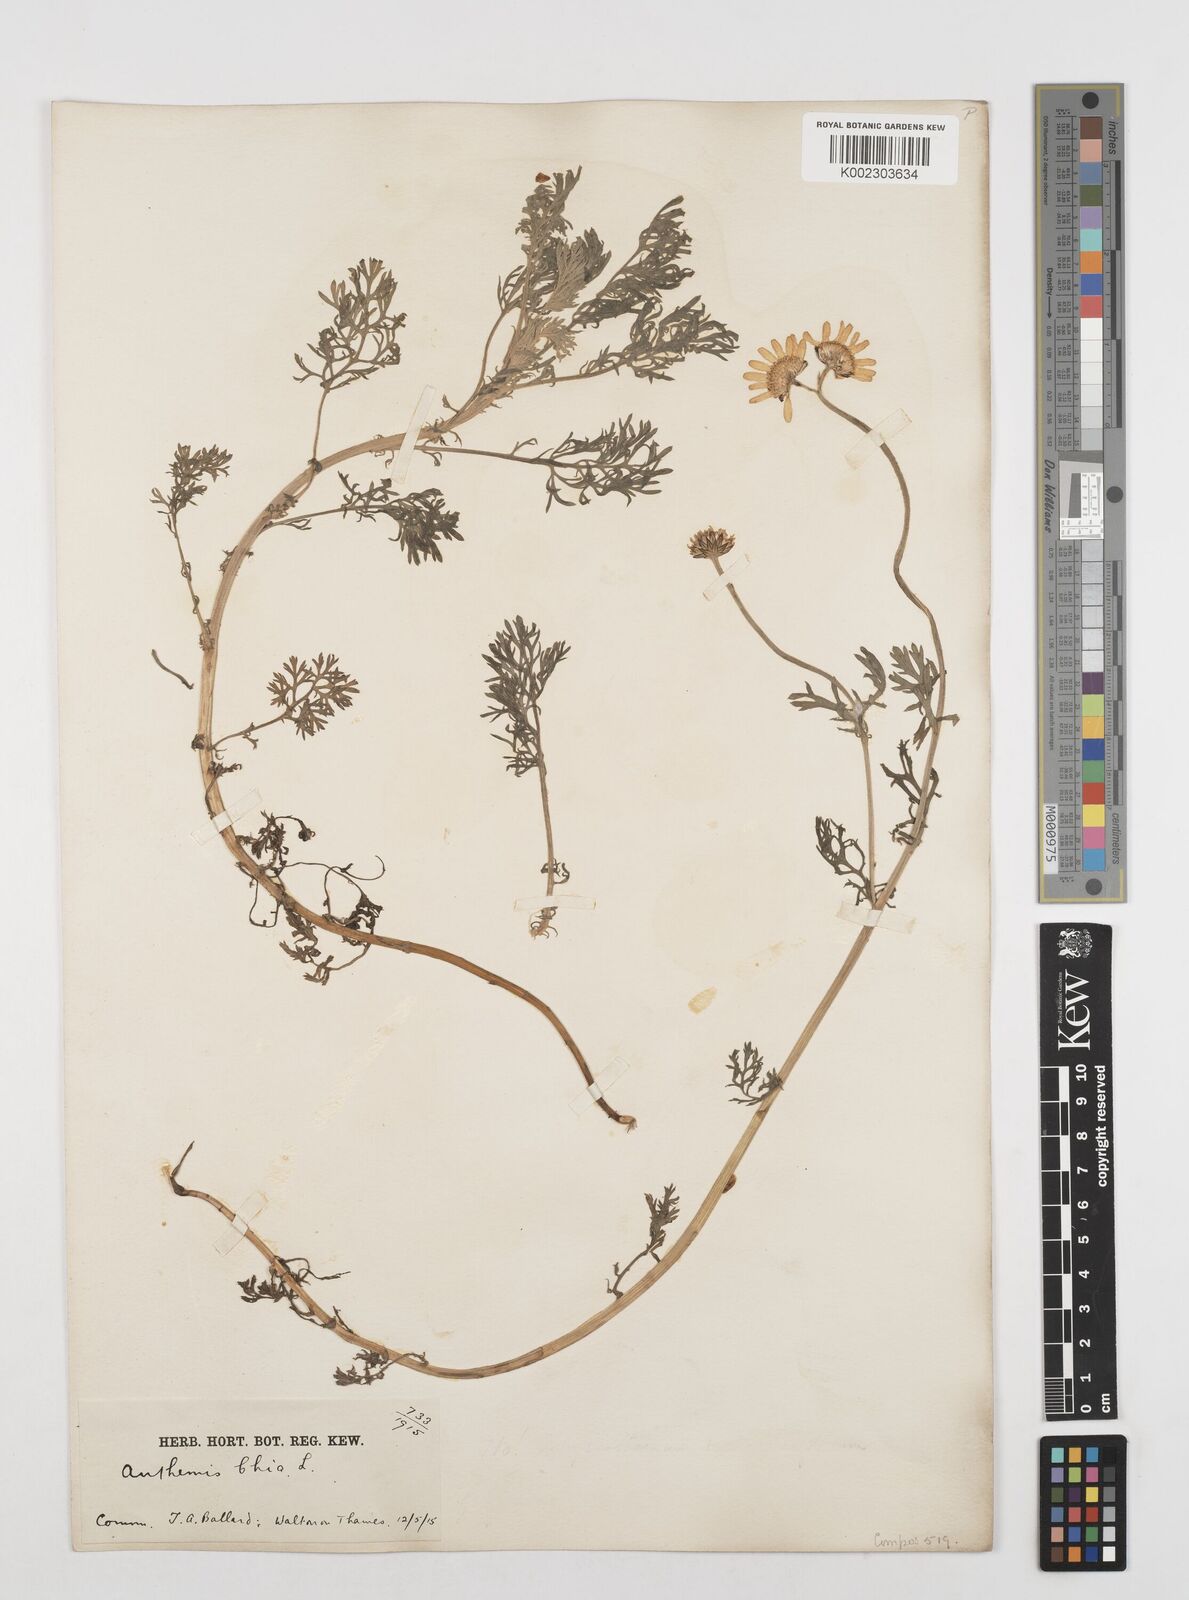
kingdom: Plantae
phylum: Tracheophyta
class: Magnoliopsida
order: Asterales
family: Asteraceae
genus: Tanacetum
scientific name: Tanacetum cinerariifolium
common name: Dalmatian pyrethrum
